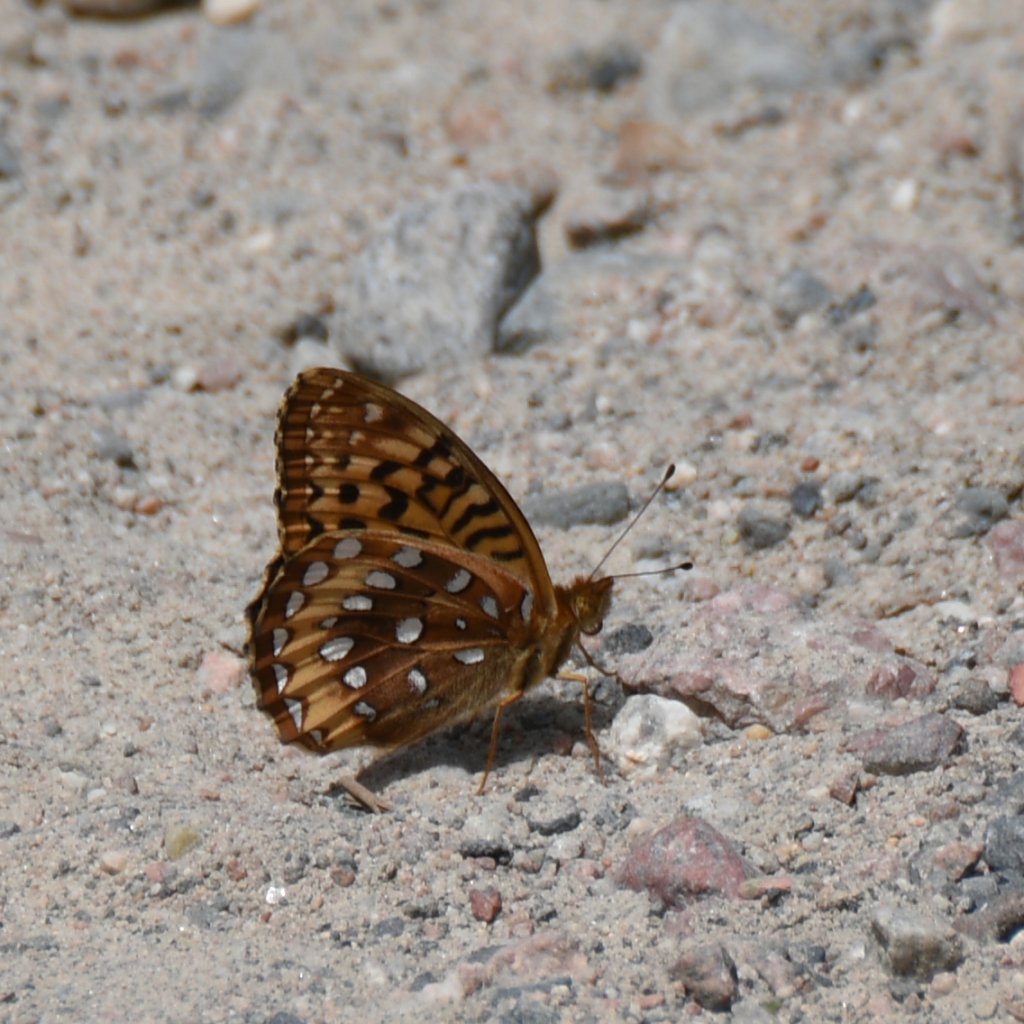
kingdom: Animalia
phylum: Arthropoda
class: Insecta
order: Lepidoptera
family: Nymphalidae
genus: Speyeria
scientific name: Speyeria cybele
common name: Great Spangled Fritillary
